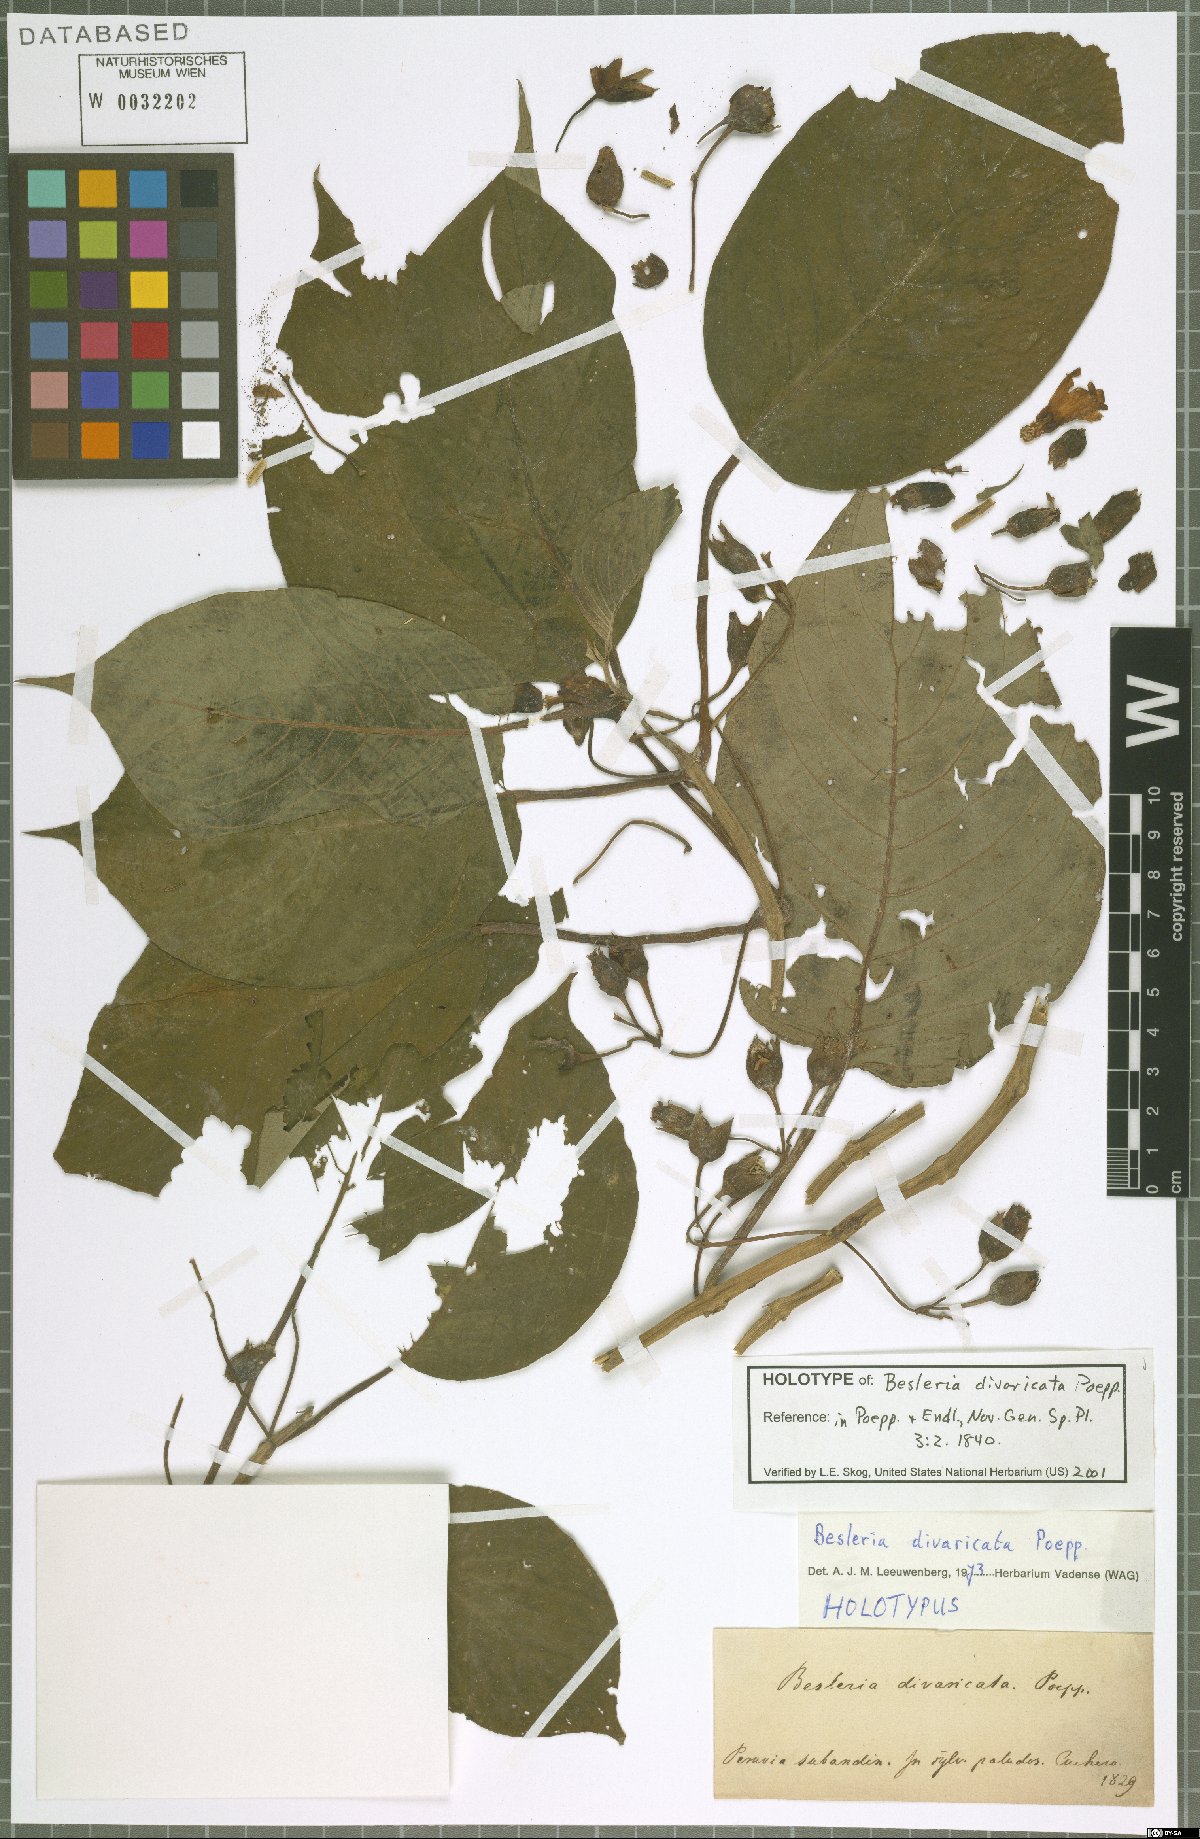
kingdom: Plantae
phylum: Tracheophyta
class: Magnoliopsida
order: Lamiales
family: Gesneriaceae
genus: Besleria
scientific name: Besleria divaricata
